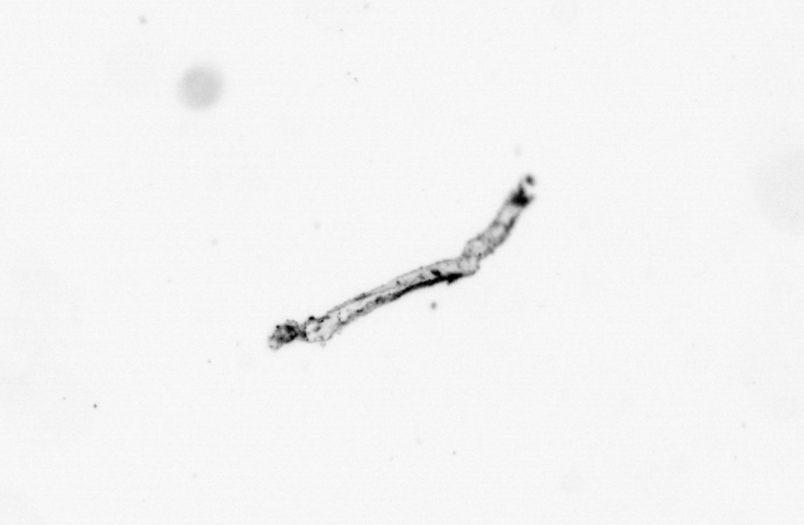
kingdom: Chromista
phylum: Ochrophyta
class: Bacillariophyceae
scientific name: Bacillariophyceae
